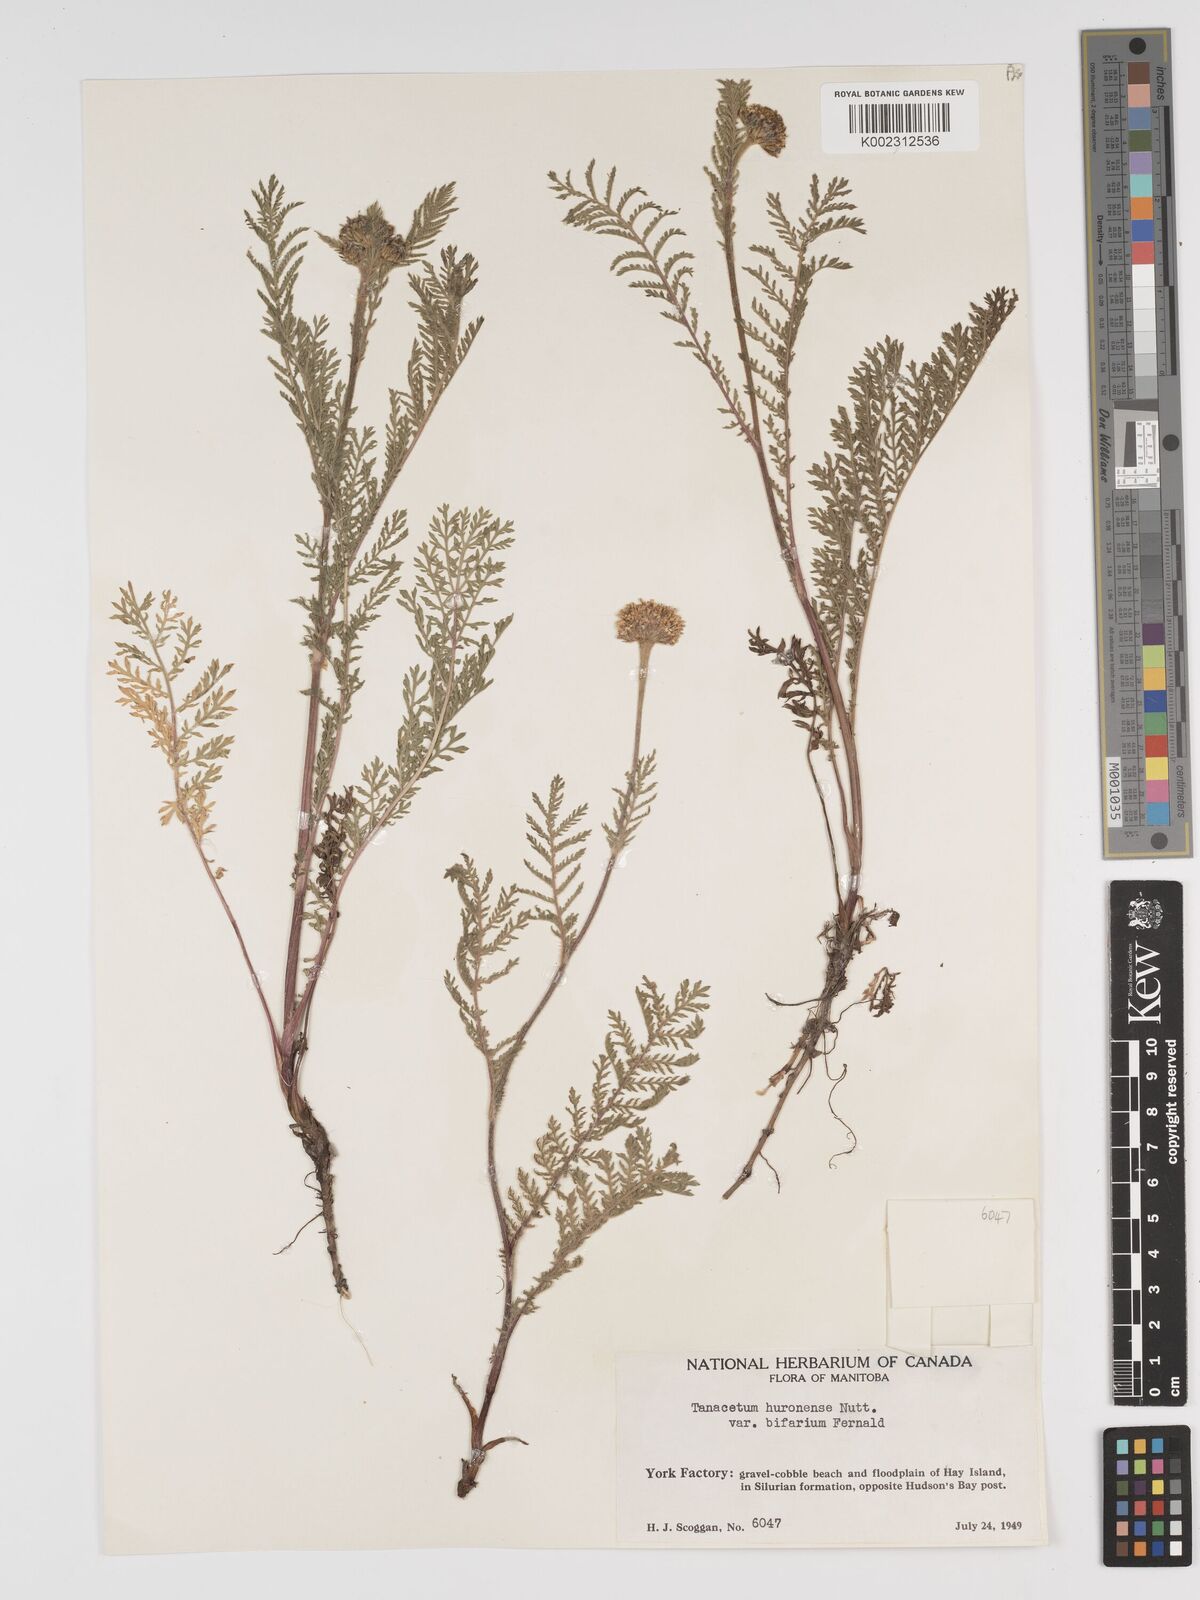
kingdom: Plantae
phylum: Tracheophyta
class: Magnoliopsida
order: Asterales
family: Asteraceae
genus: Tanacetum
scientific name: Tanacetum bipinnatum
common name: Dwarf tansy
